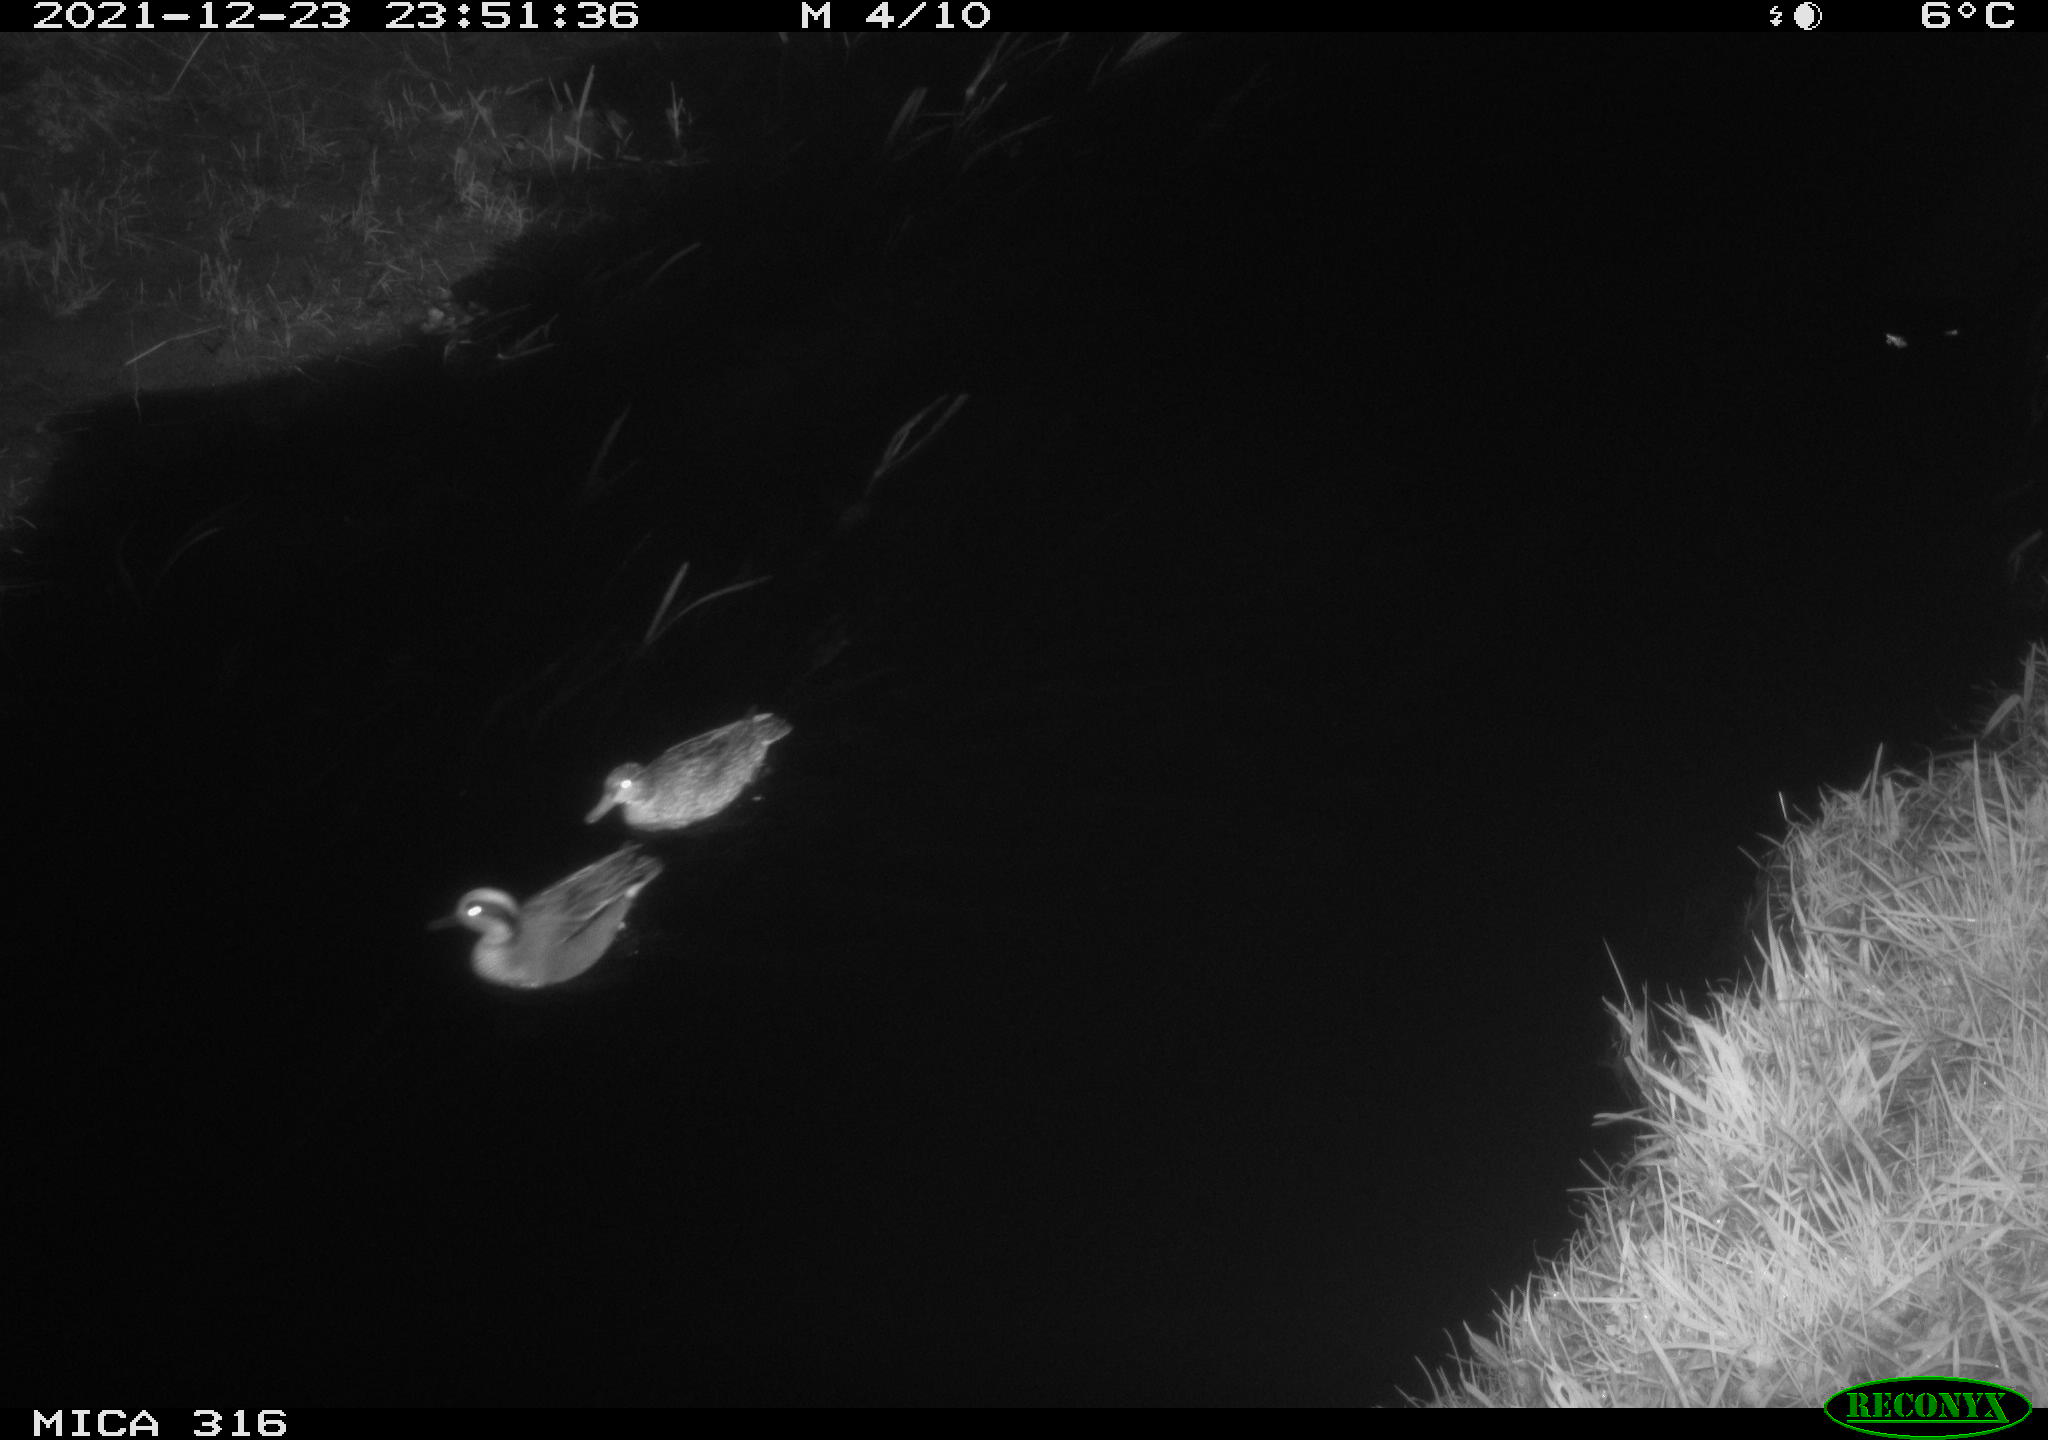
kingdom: Animalia
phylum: Chordata
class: Aves
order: Anseriformes
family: Anatidae
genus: Aix
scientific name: Aix galericulata
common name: Mandarin duck
